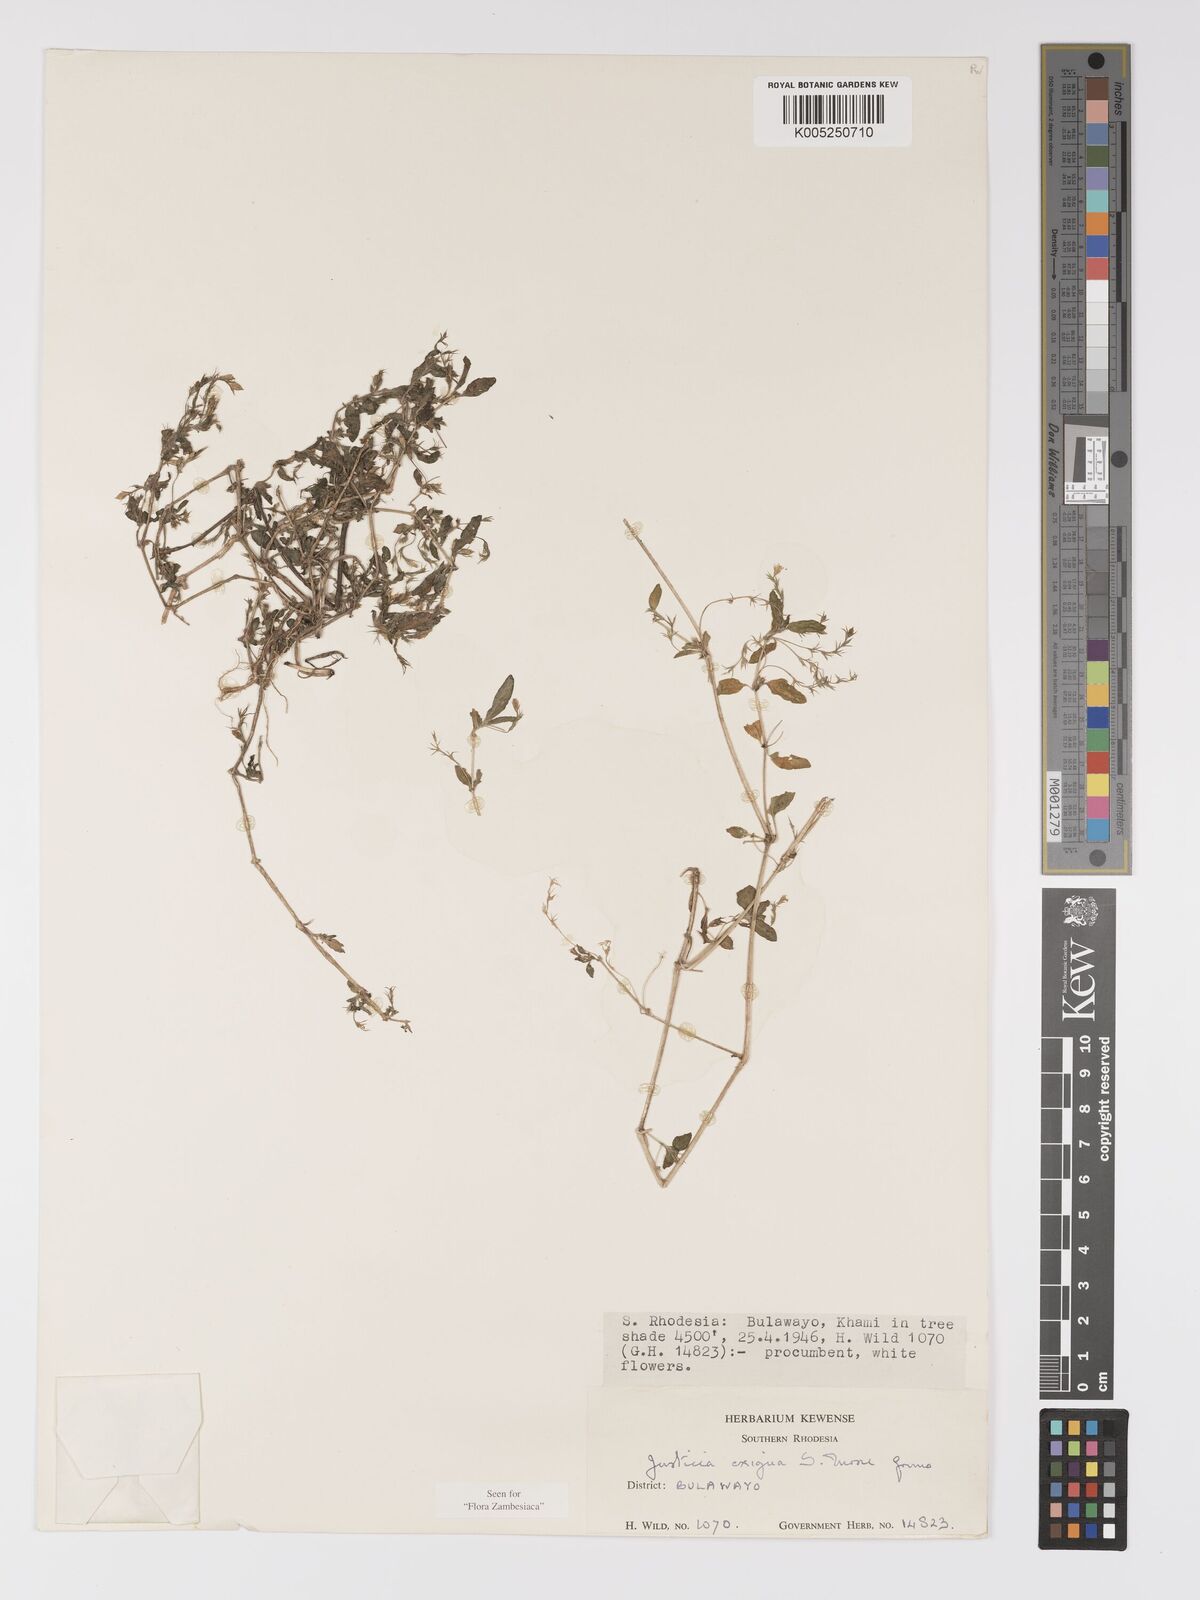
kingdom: Plantae
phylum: Tracheophyta
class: Magnoliopsida
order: Lamiales
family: Acanthaceae
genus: Justicia
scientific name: Justicia exigua
